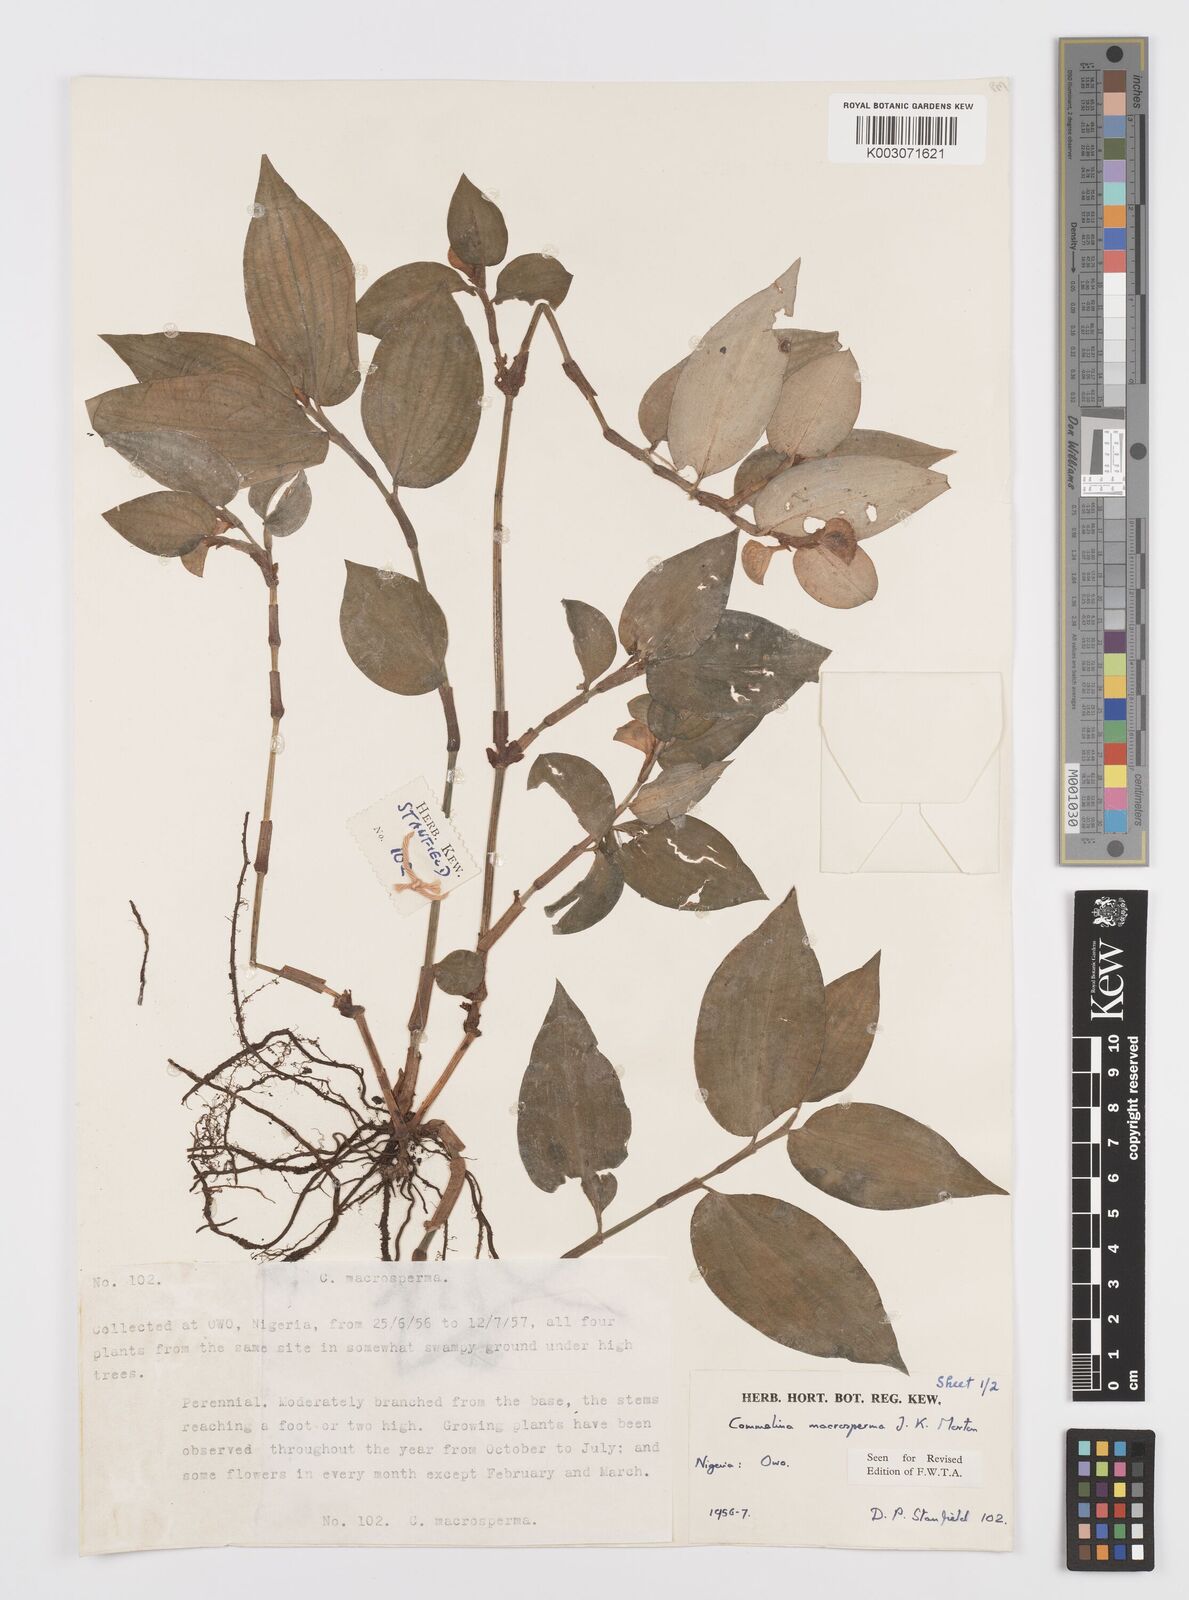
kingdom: Plantae
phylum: Tracheophyta
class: Liliopsida
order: Commelinales
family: Commelinaceae
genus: Commelina
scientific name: Commelina macrosperma
